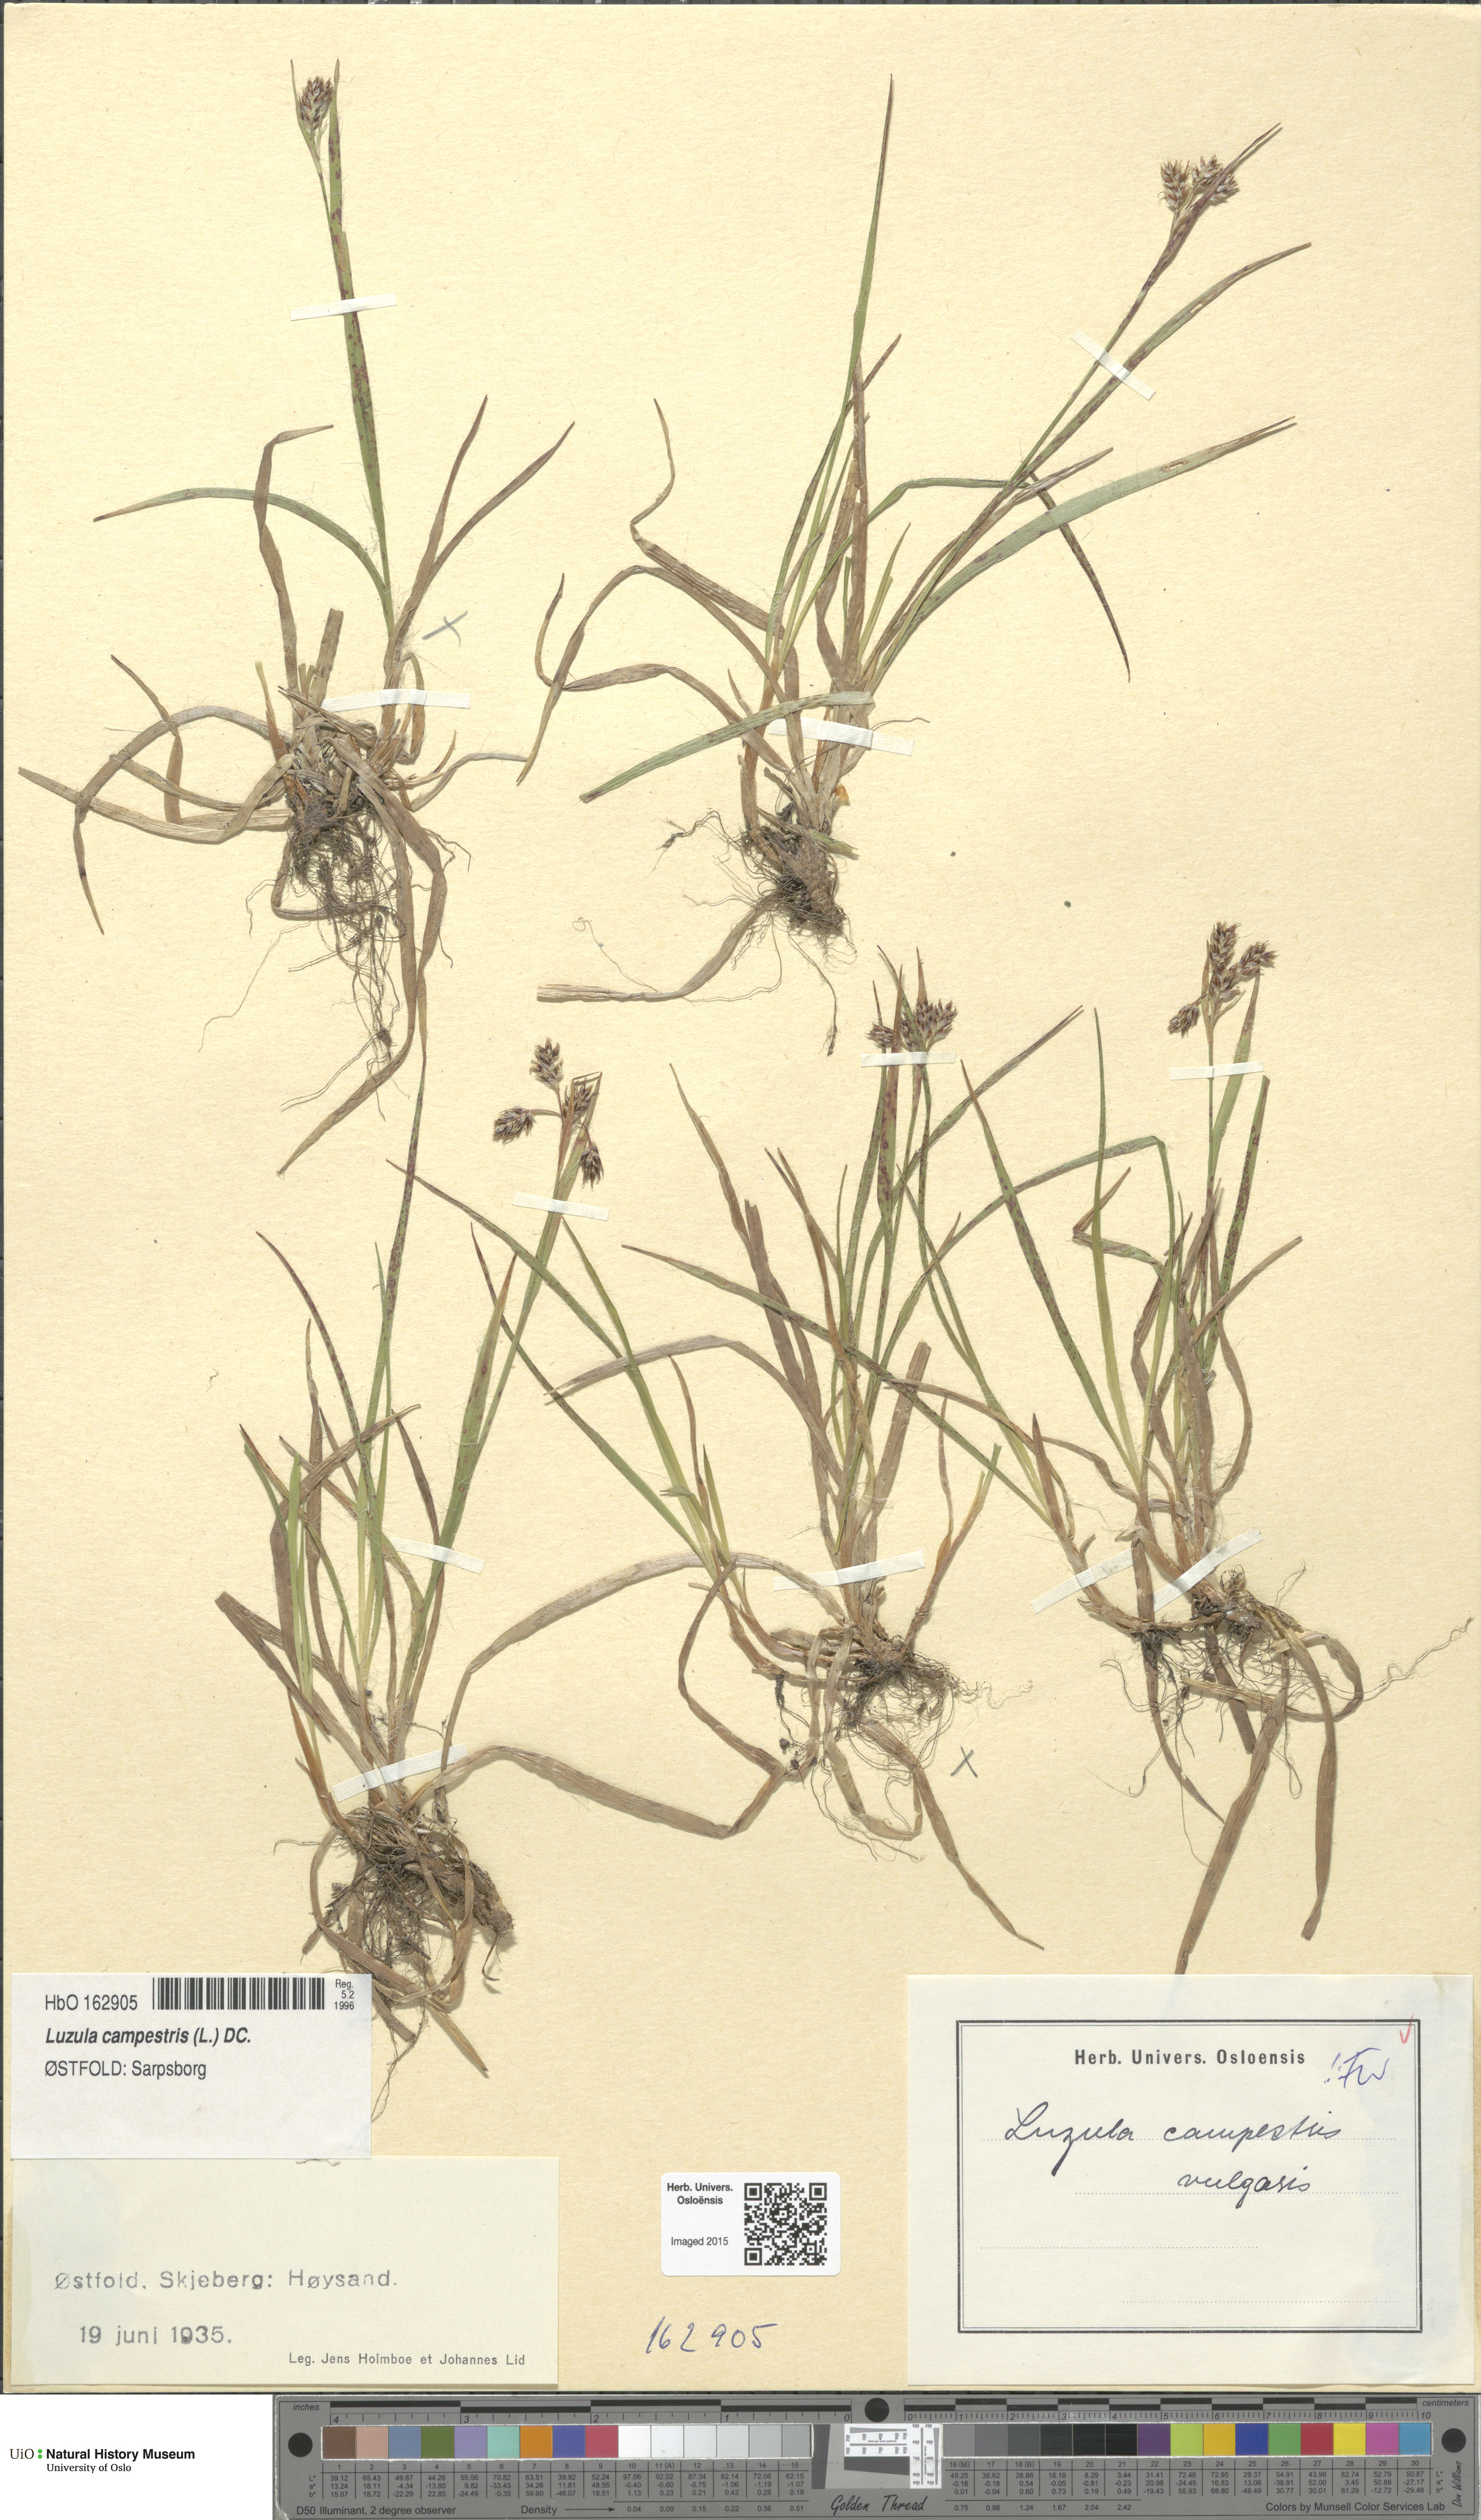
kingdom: Plantae
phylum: Tracheophyta
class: Liliopsida
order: Poales
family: Juncaceae
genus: Luzula
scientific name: Luzula campestris
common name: Field wood-rush
